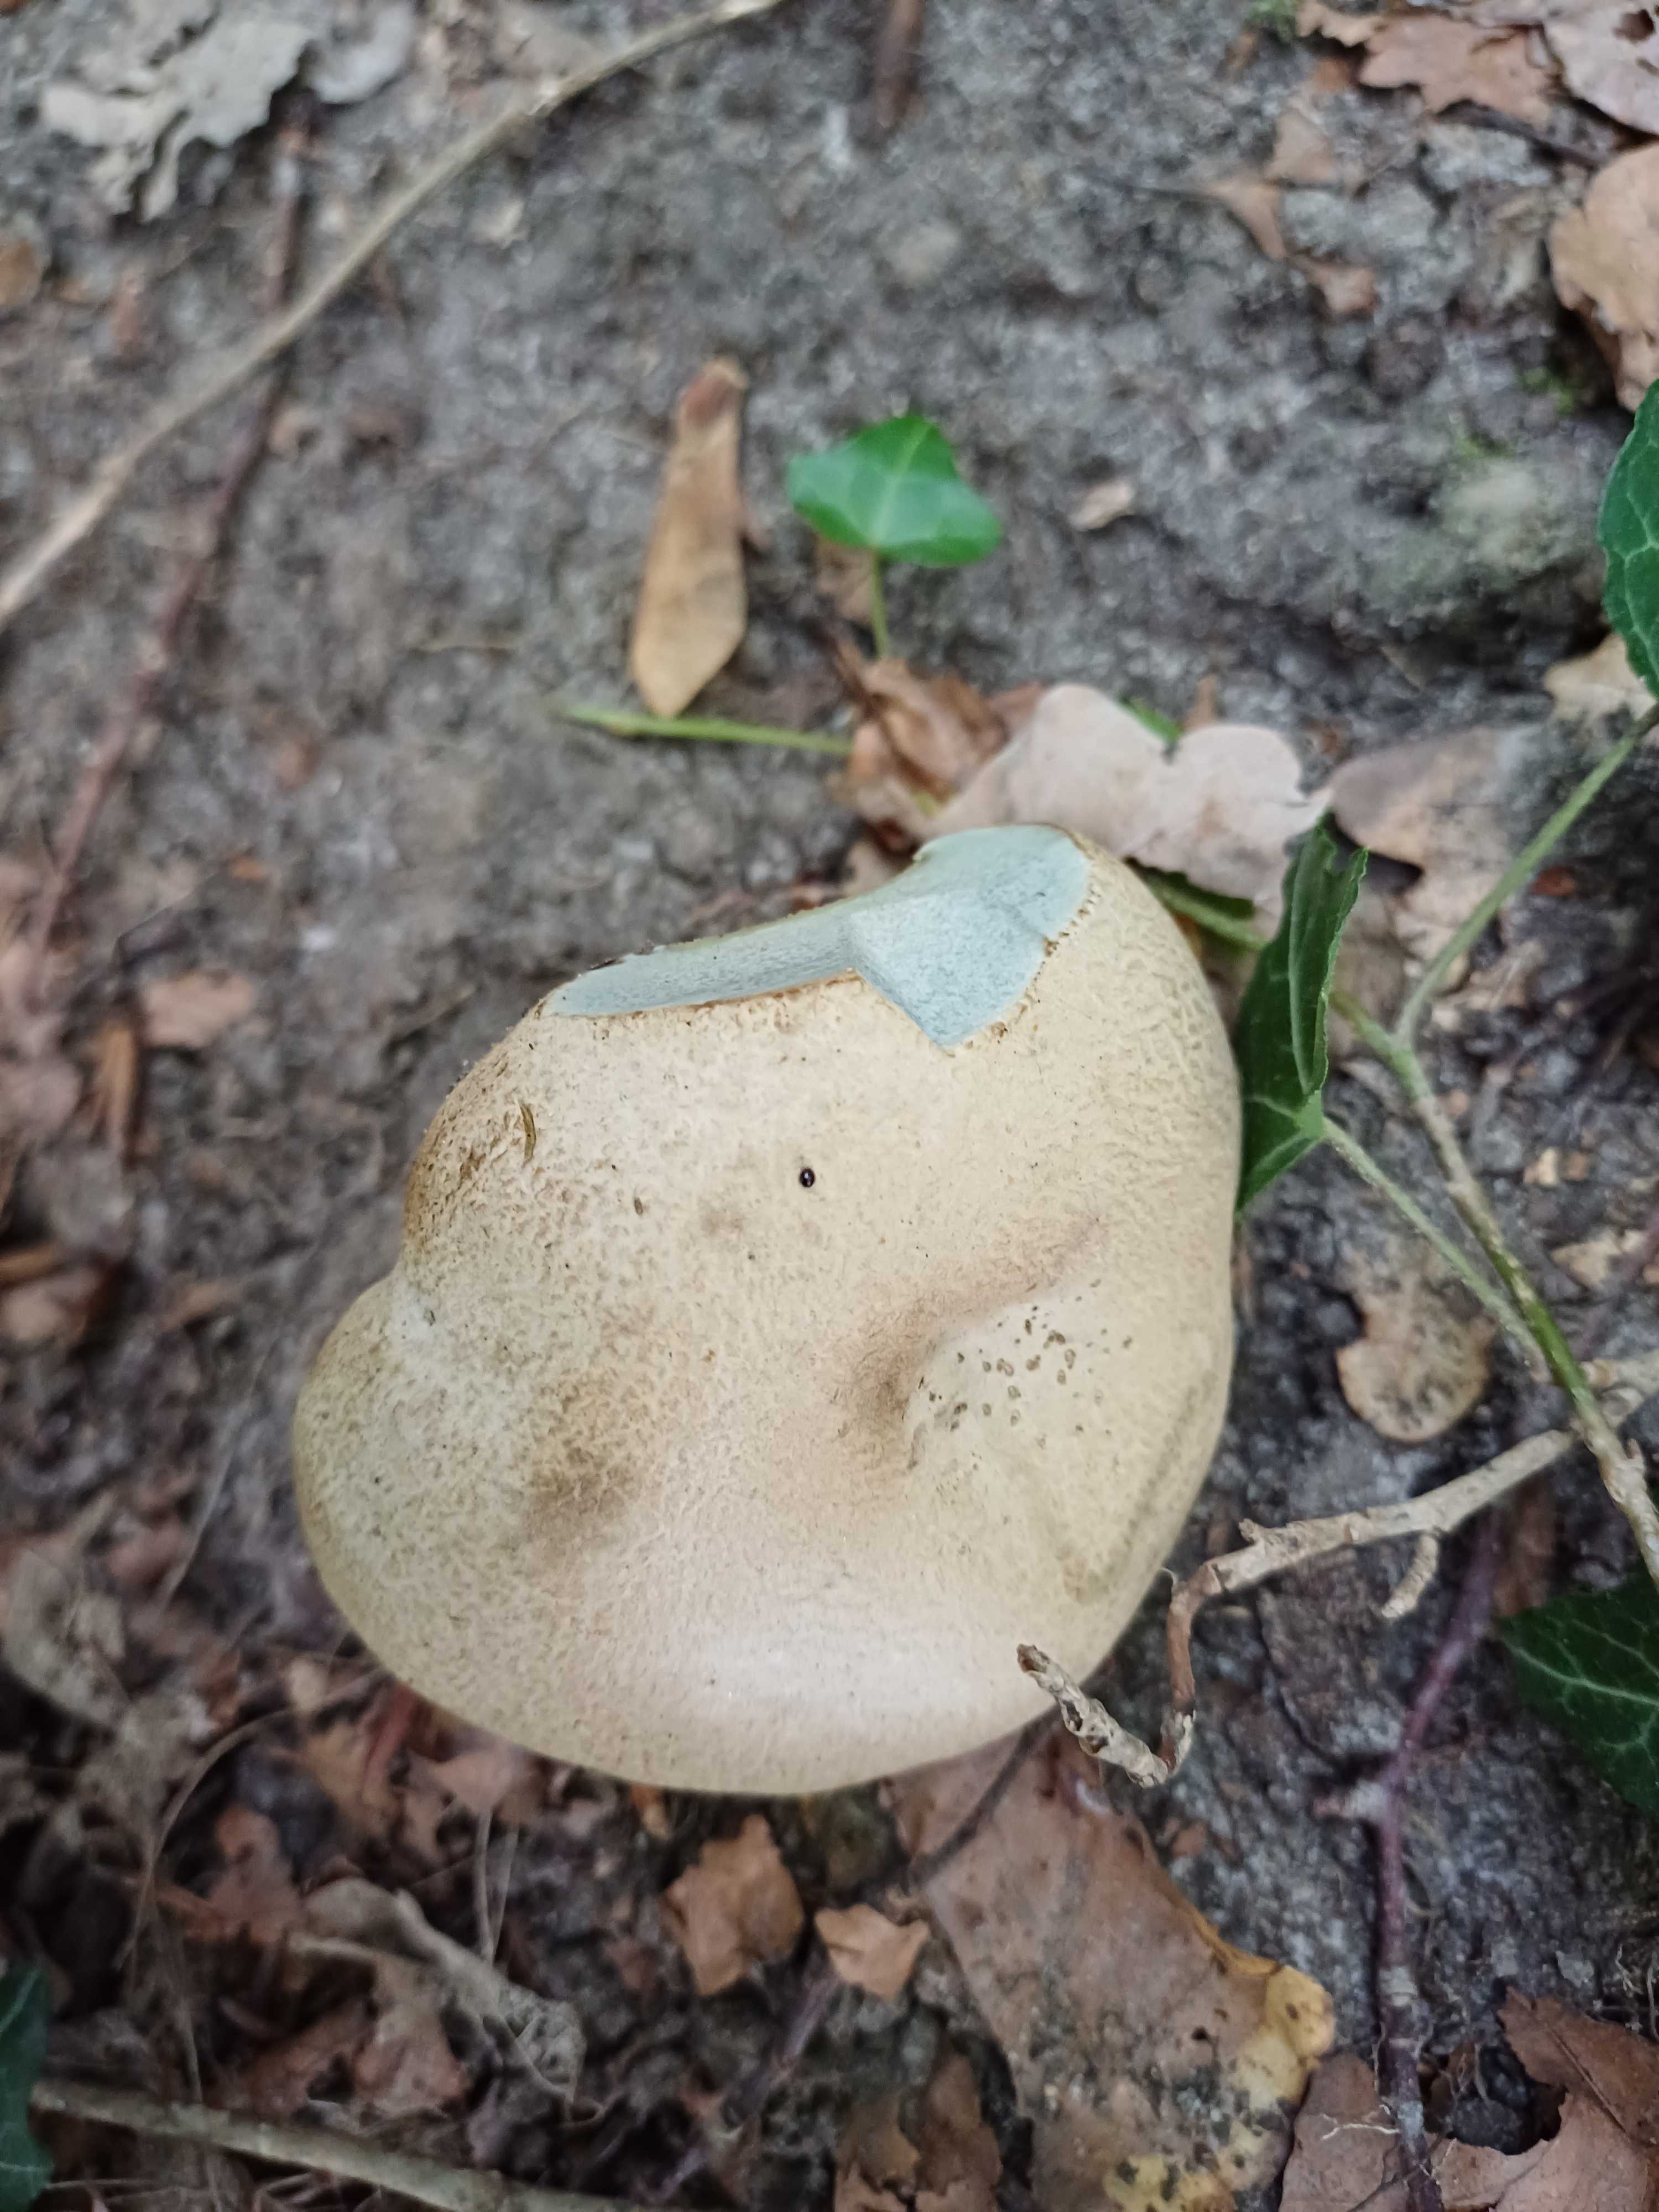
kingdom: Fungi
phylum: Basidiomycota
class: Agaricomycetes
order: Boletales
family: Boletaceae
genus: Caloboletus
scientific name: Caloboletus radicans
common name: rod-rørhat
